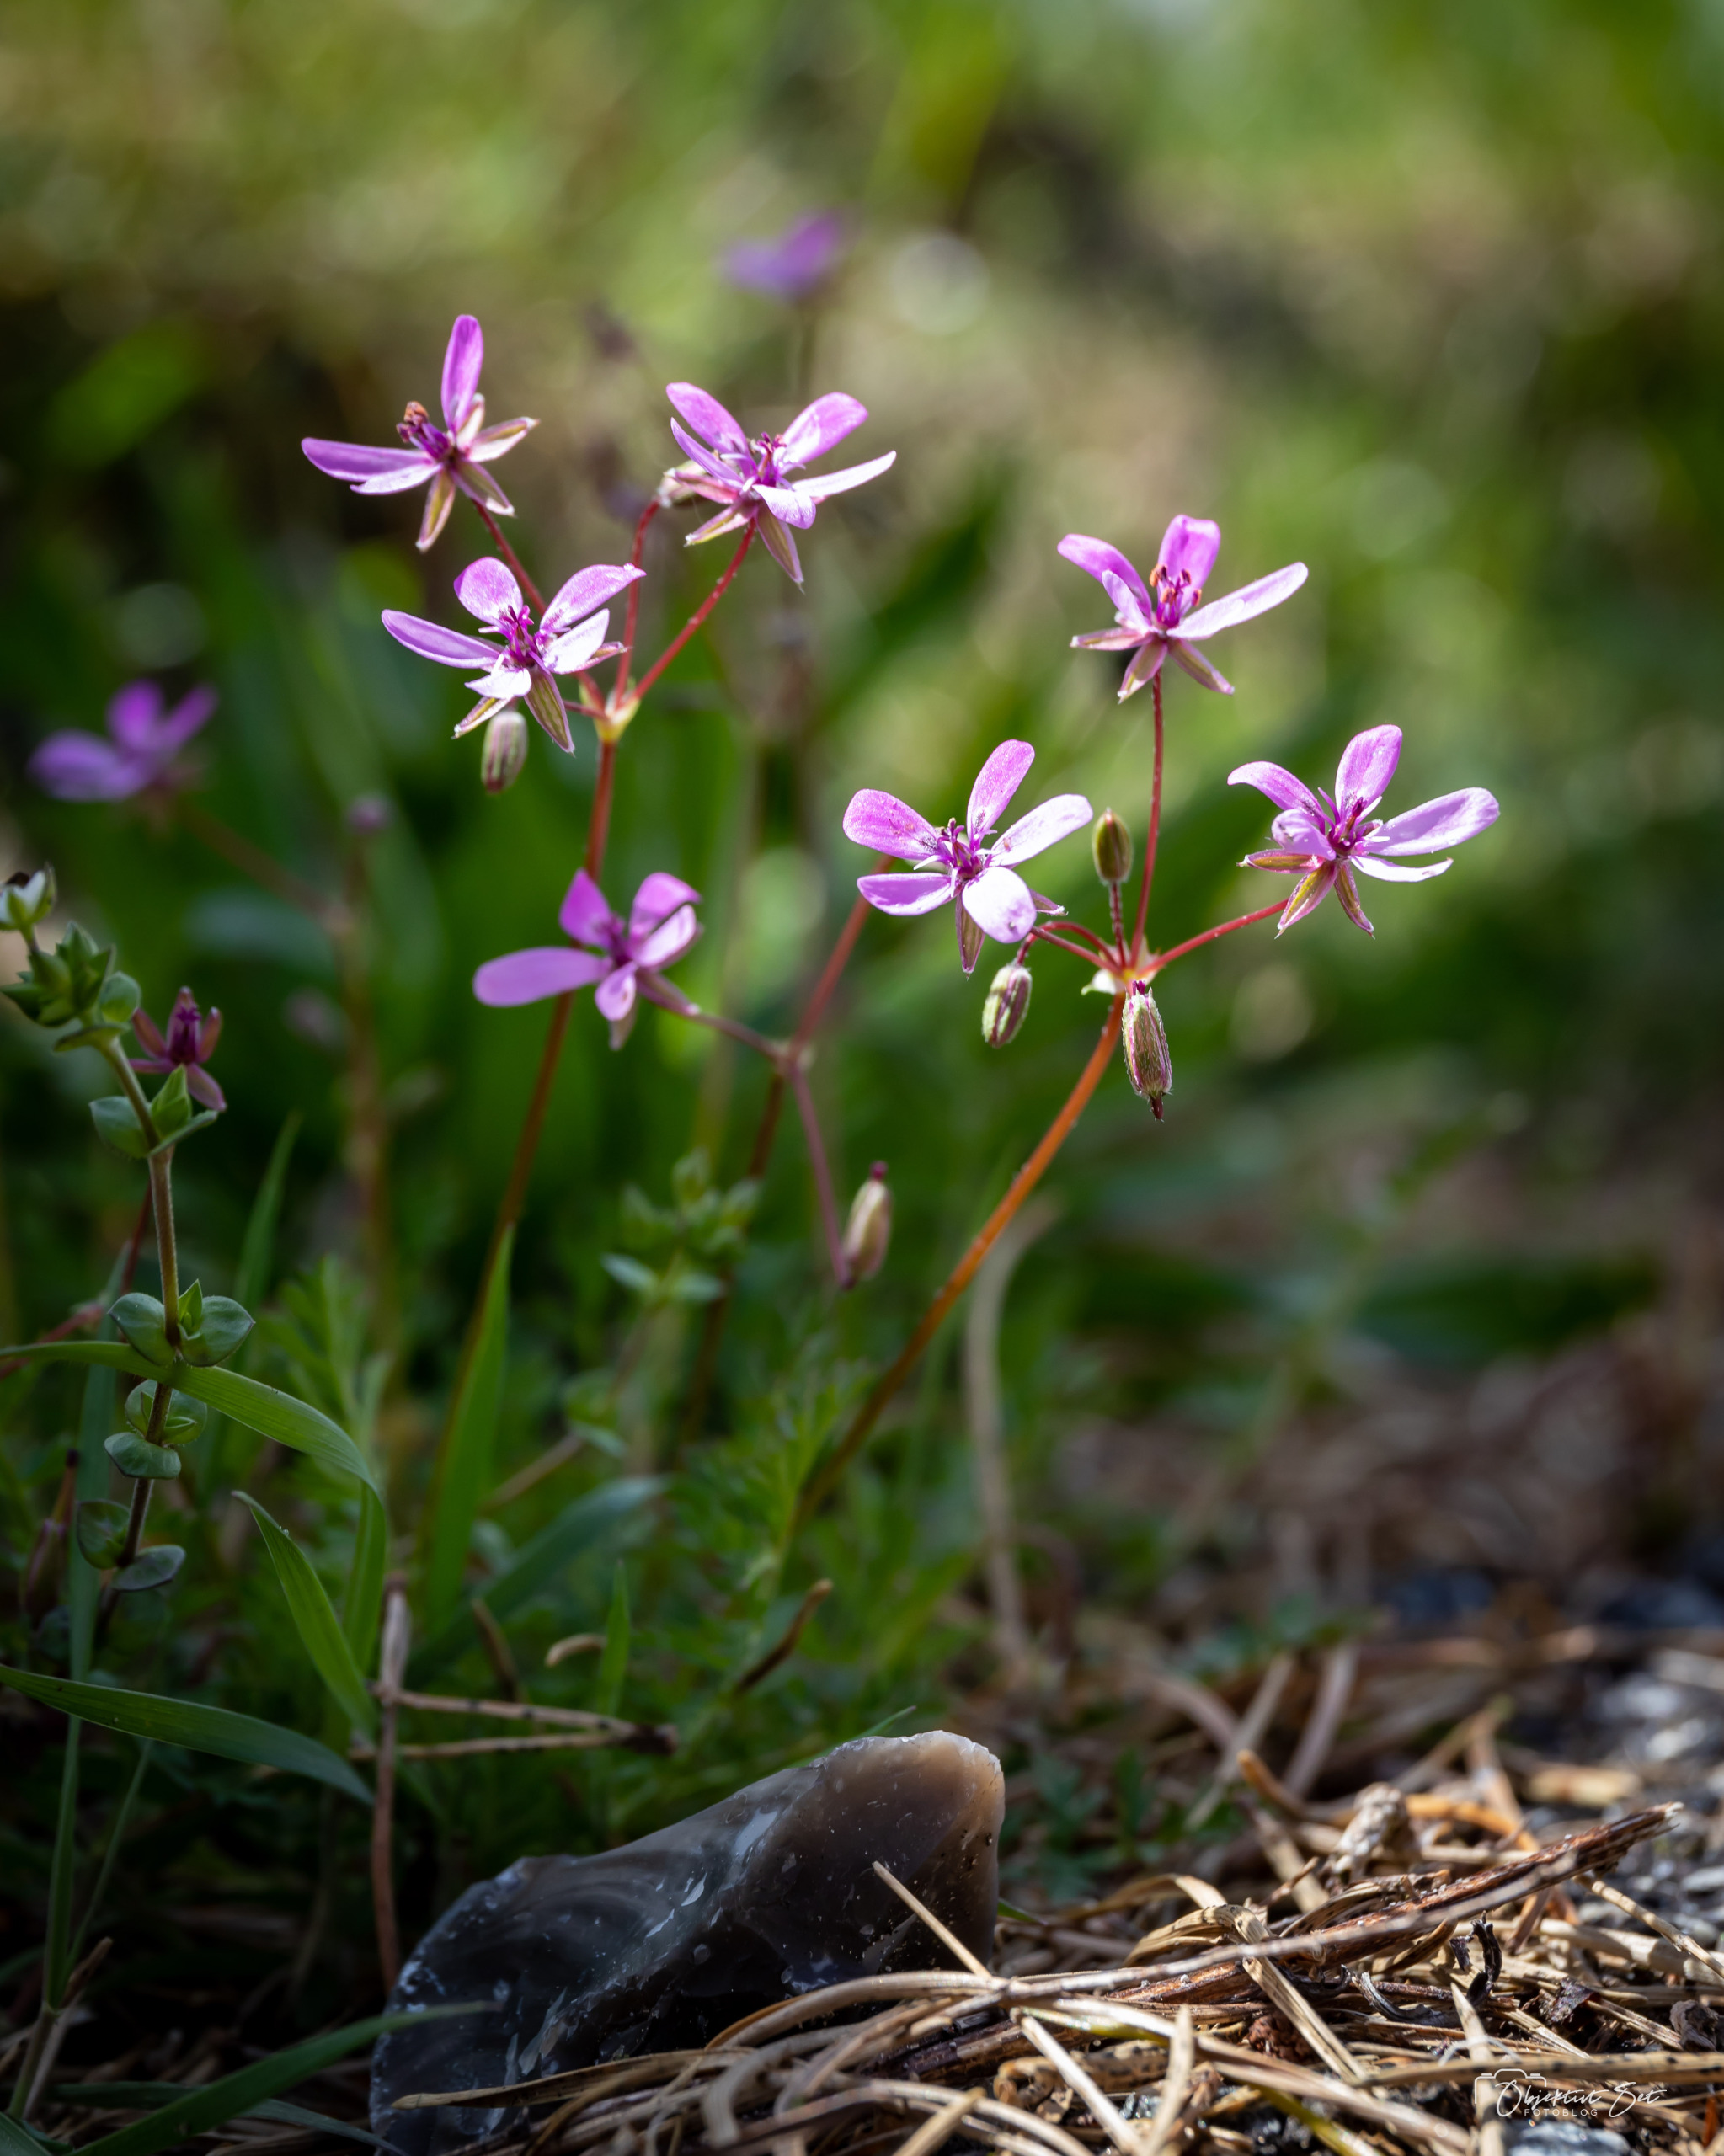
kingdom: Plantae
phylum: Tracheophyta
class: Magnoliopsida
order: Geraniales
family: Geraniaceae
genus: Erodium
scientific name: Erodium cicutarium
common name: Hejrenæb
